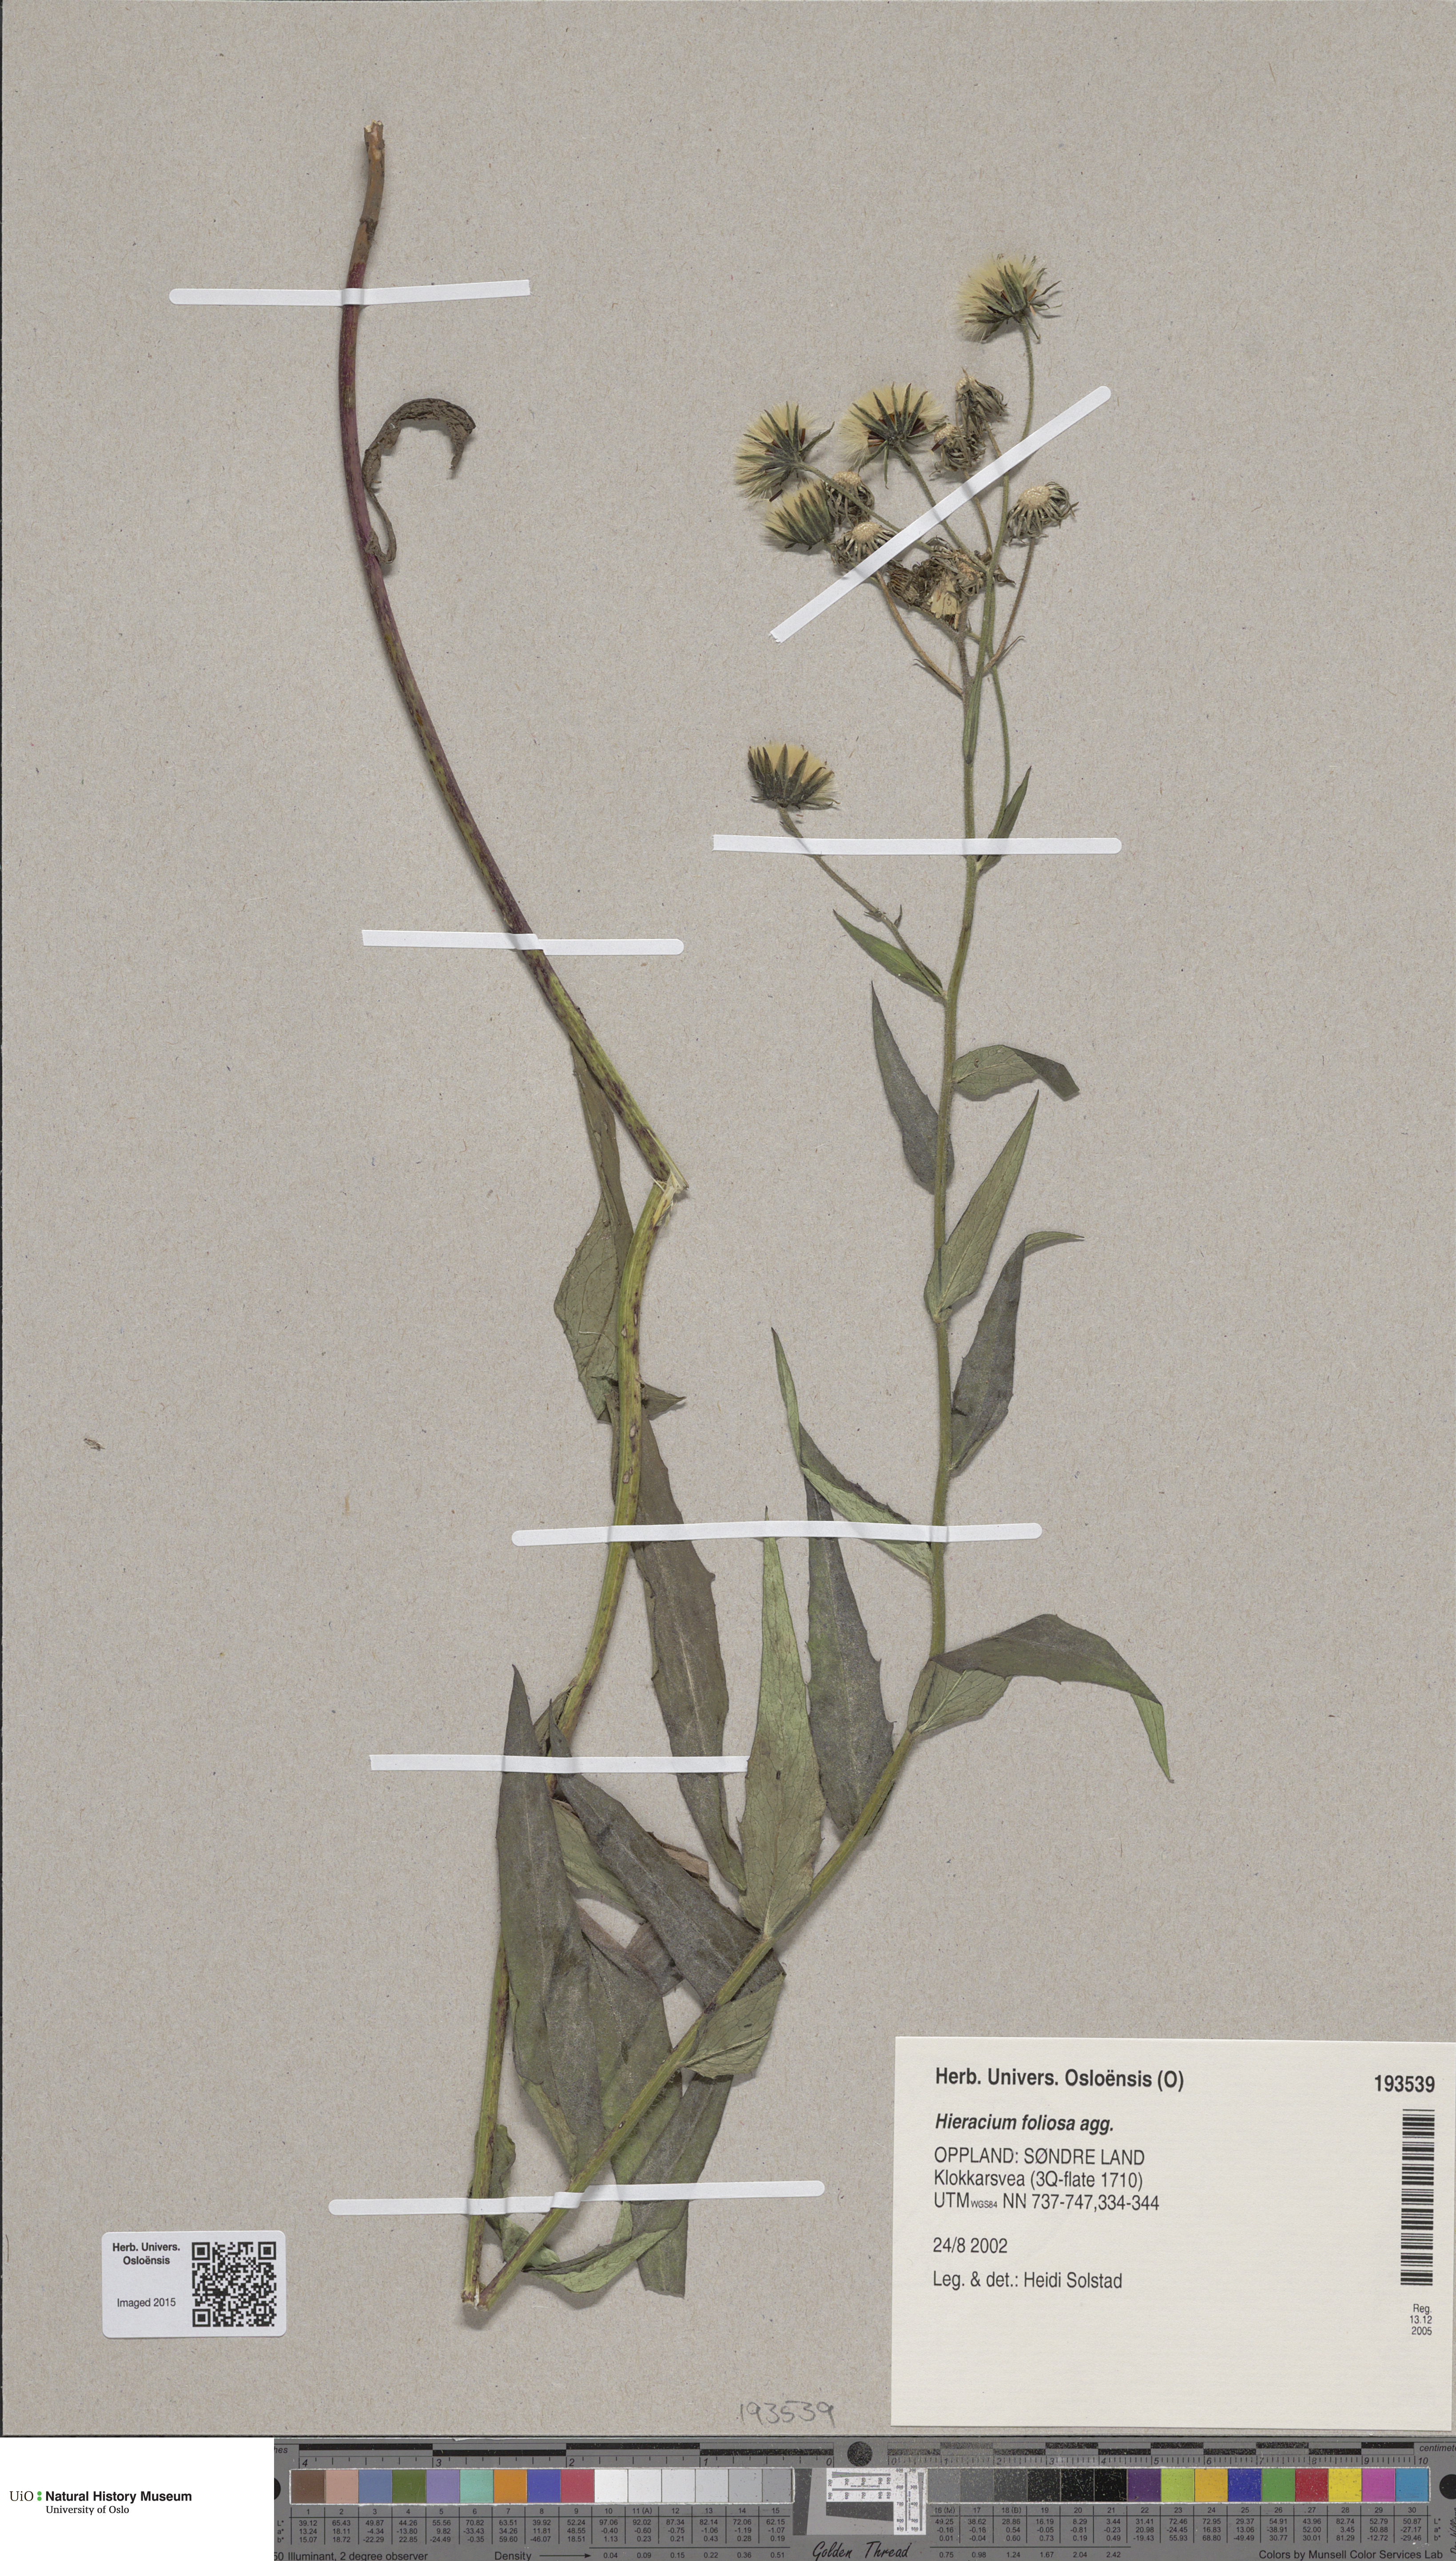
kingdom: Plantae
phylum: Tracheophyta
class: Magnoliopsida
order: Asterales
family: Asteraceae
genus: Hieracium
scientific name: Hieracium
